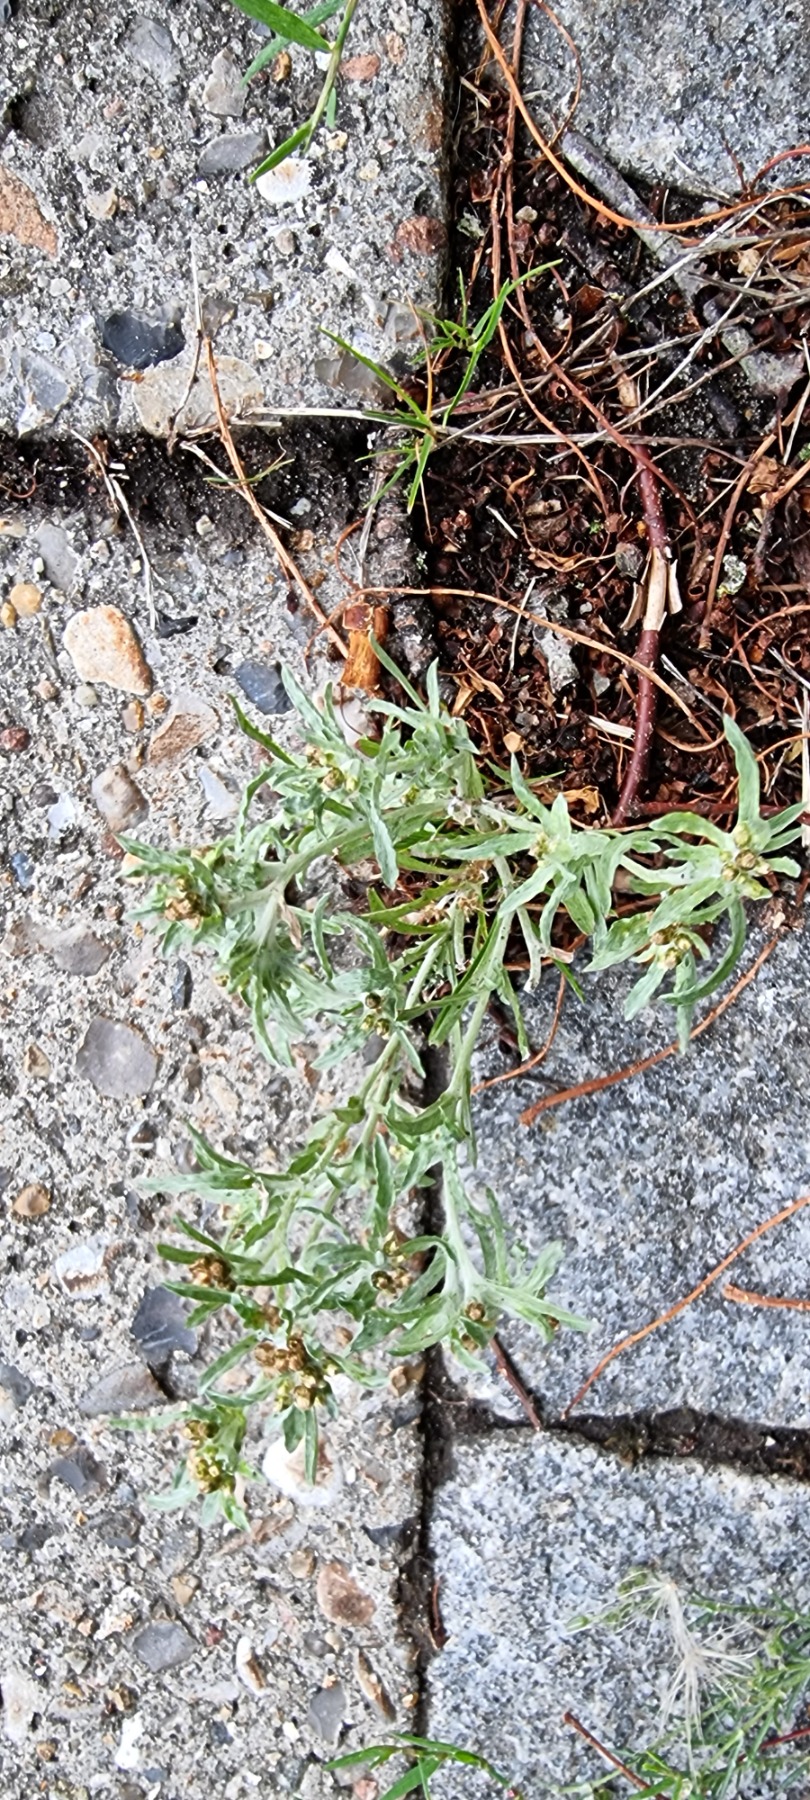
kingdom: Plantae
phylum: Tracheophyta
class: Magnoliopsida
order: Asterales
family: Asteraceae
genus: Gnaphalium
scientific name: Gnaphalium uliginosum
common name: Sump-evighedsblomst
